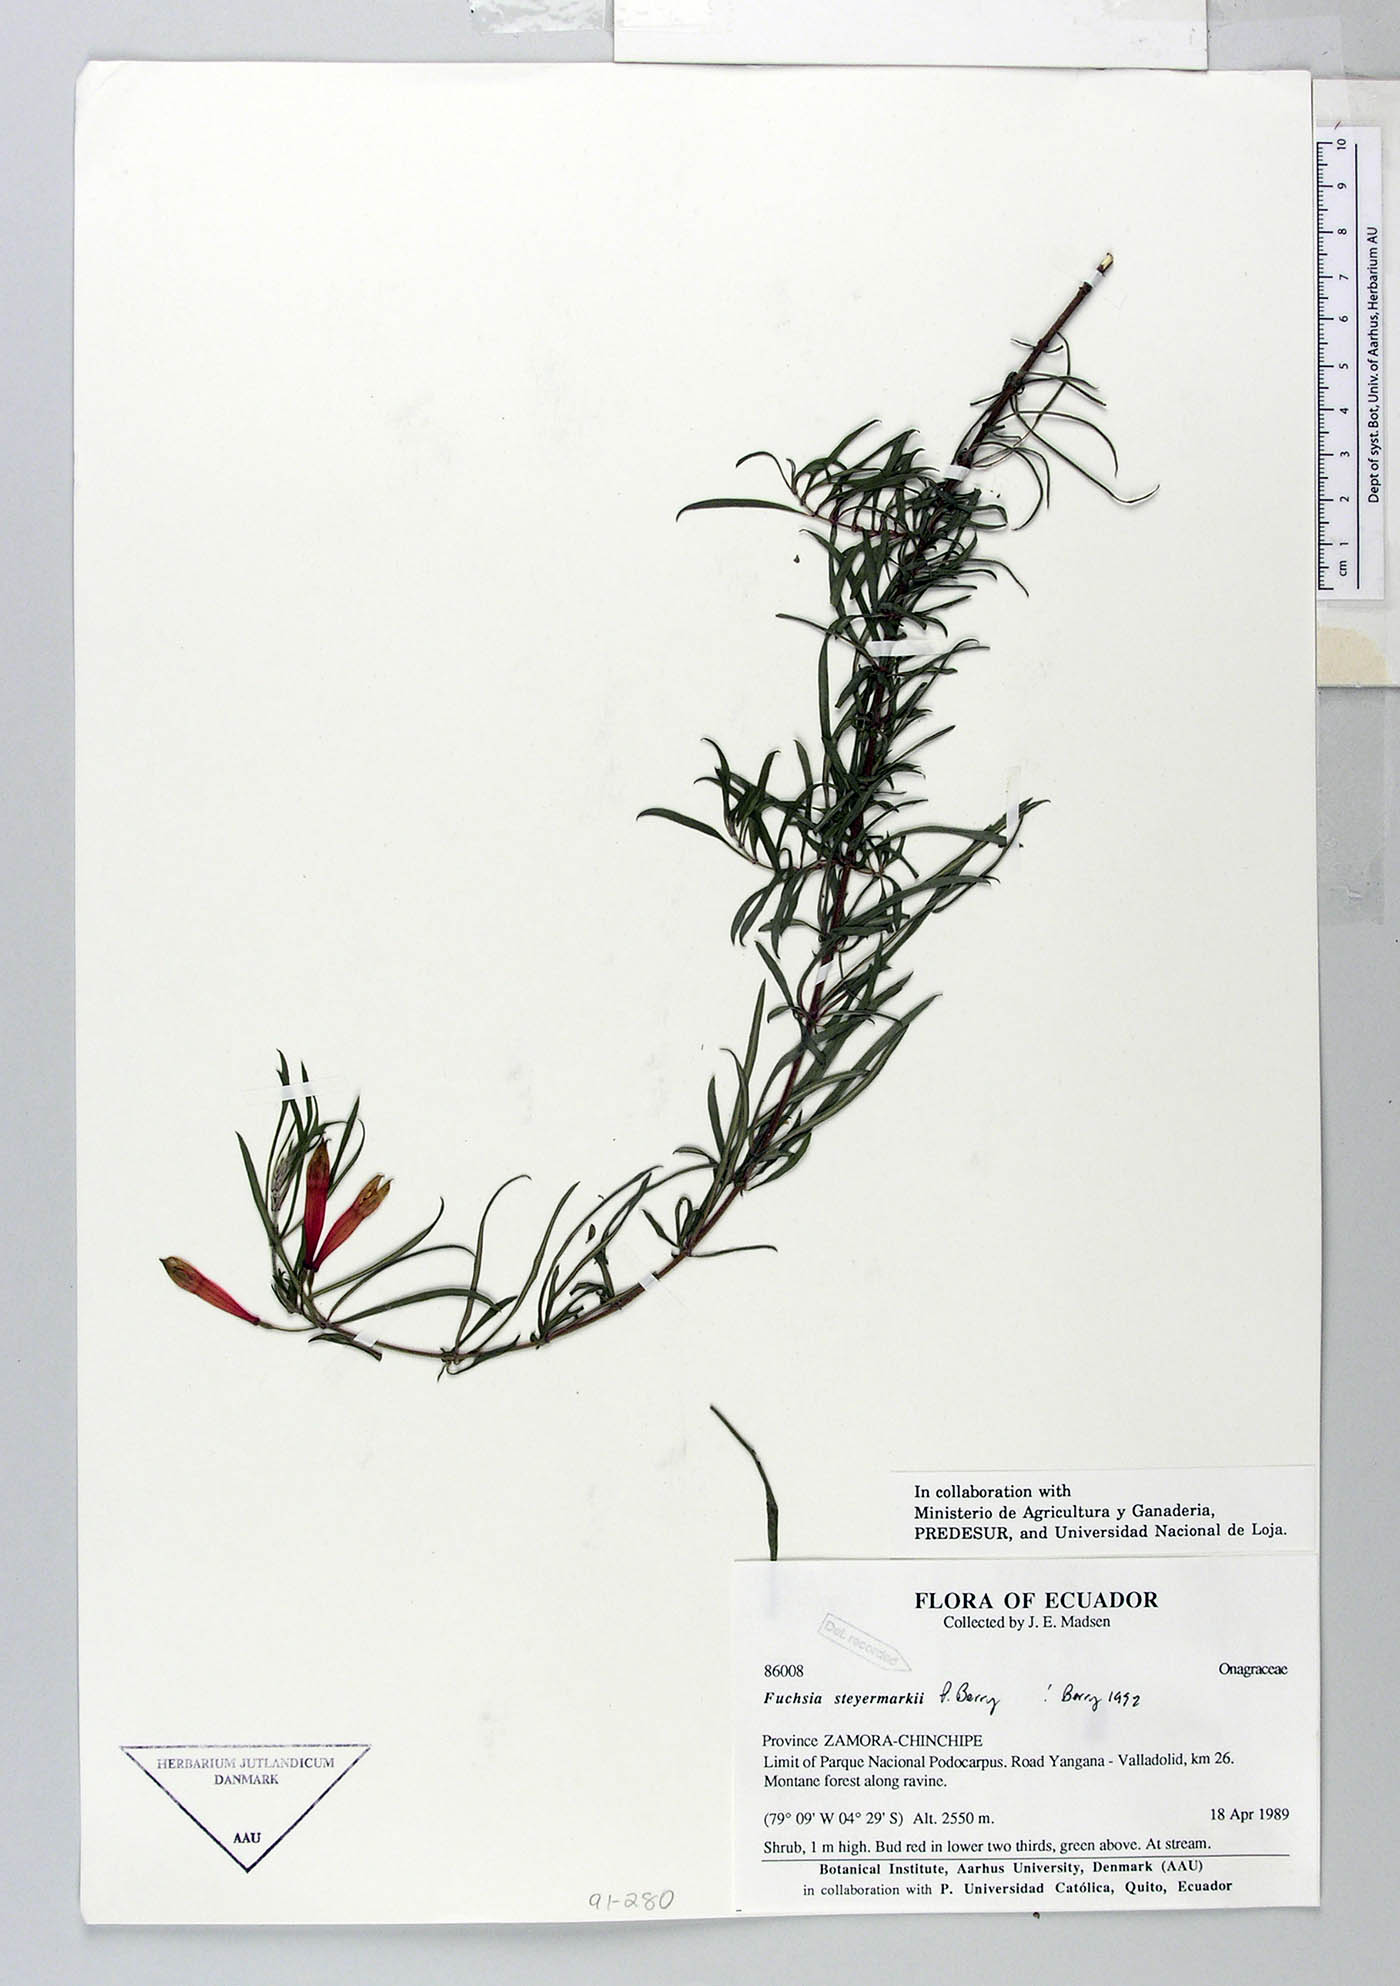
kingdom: Plantae
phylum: Tracheophyta
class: Magnoliopsida
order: Myrtales
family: Onagraceae
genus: Fuchsia
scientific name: Fuchsia steyermarkii
